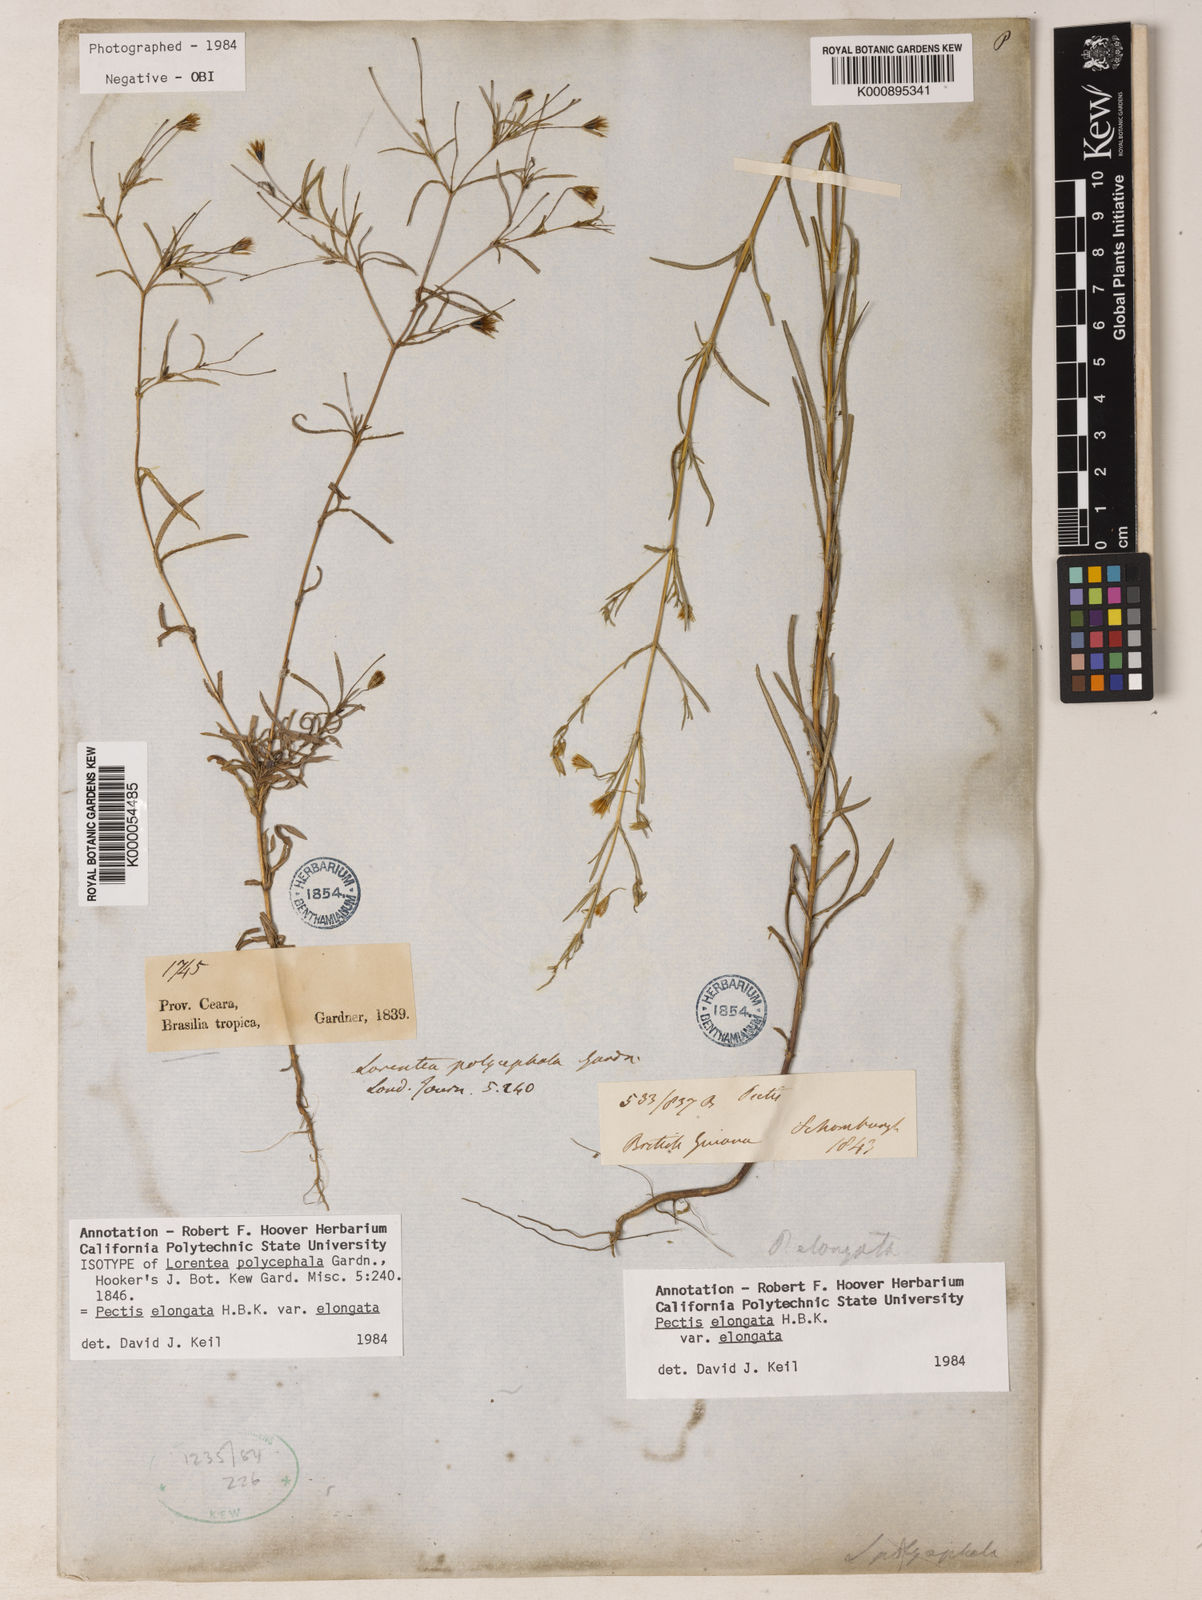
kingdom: Plantae
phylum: Tracheophyta
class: Magnoliopsida
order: Asterales
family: Asteraceae
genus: Pectis
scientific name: Pectis elongata
